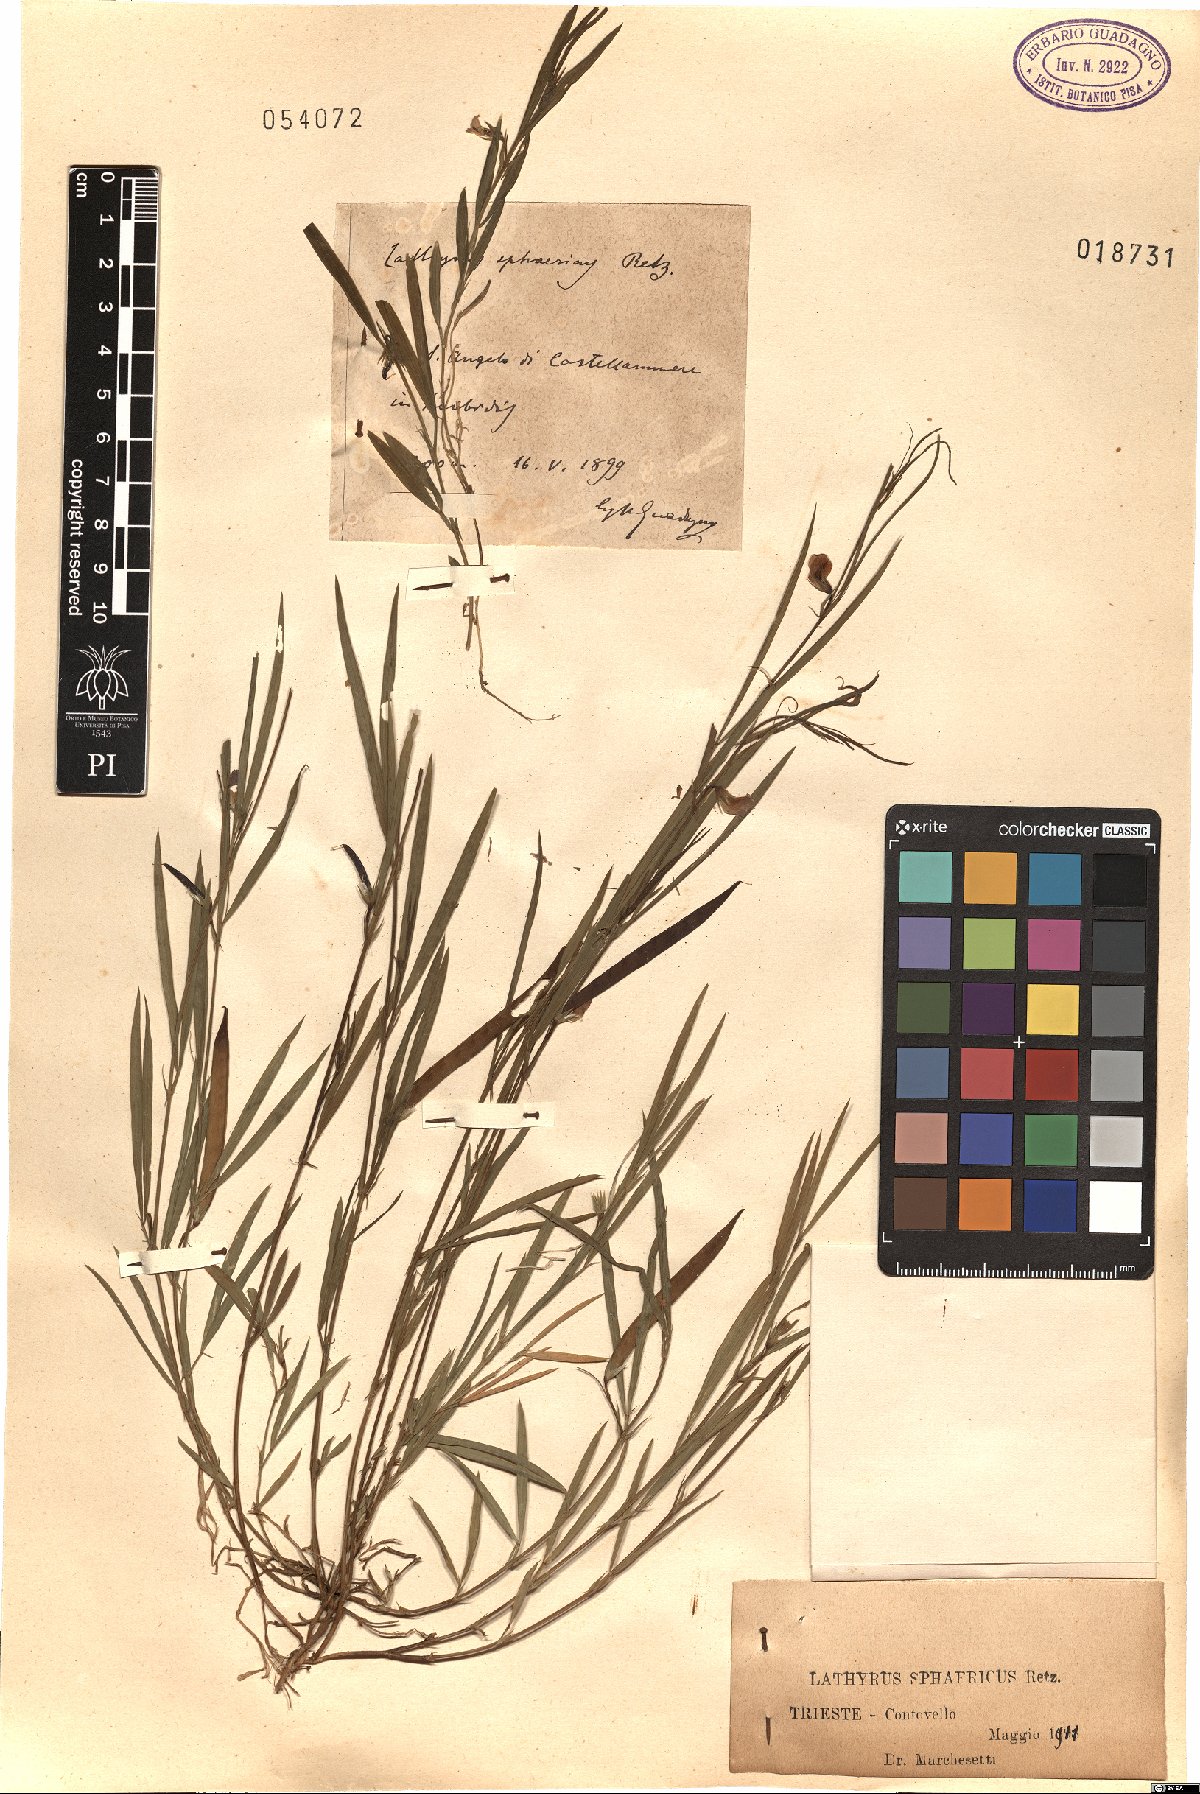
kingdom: Plantae
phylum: Tracheophyta
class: Magnoliopsida
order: Fabales
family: Fabaceae
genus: Lathyrus
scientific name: Lathyrus sphaericus
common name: Grass pea
